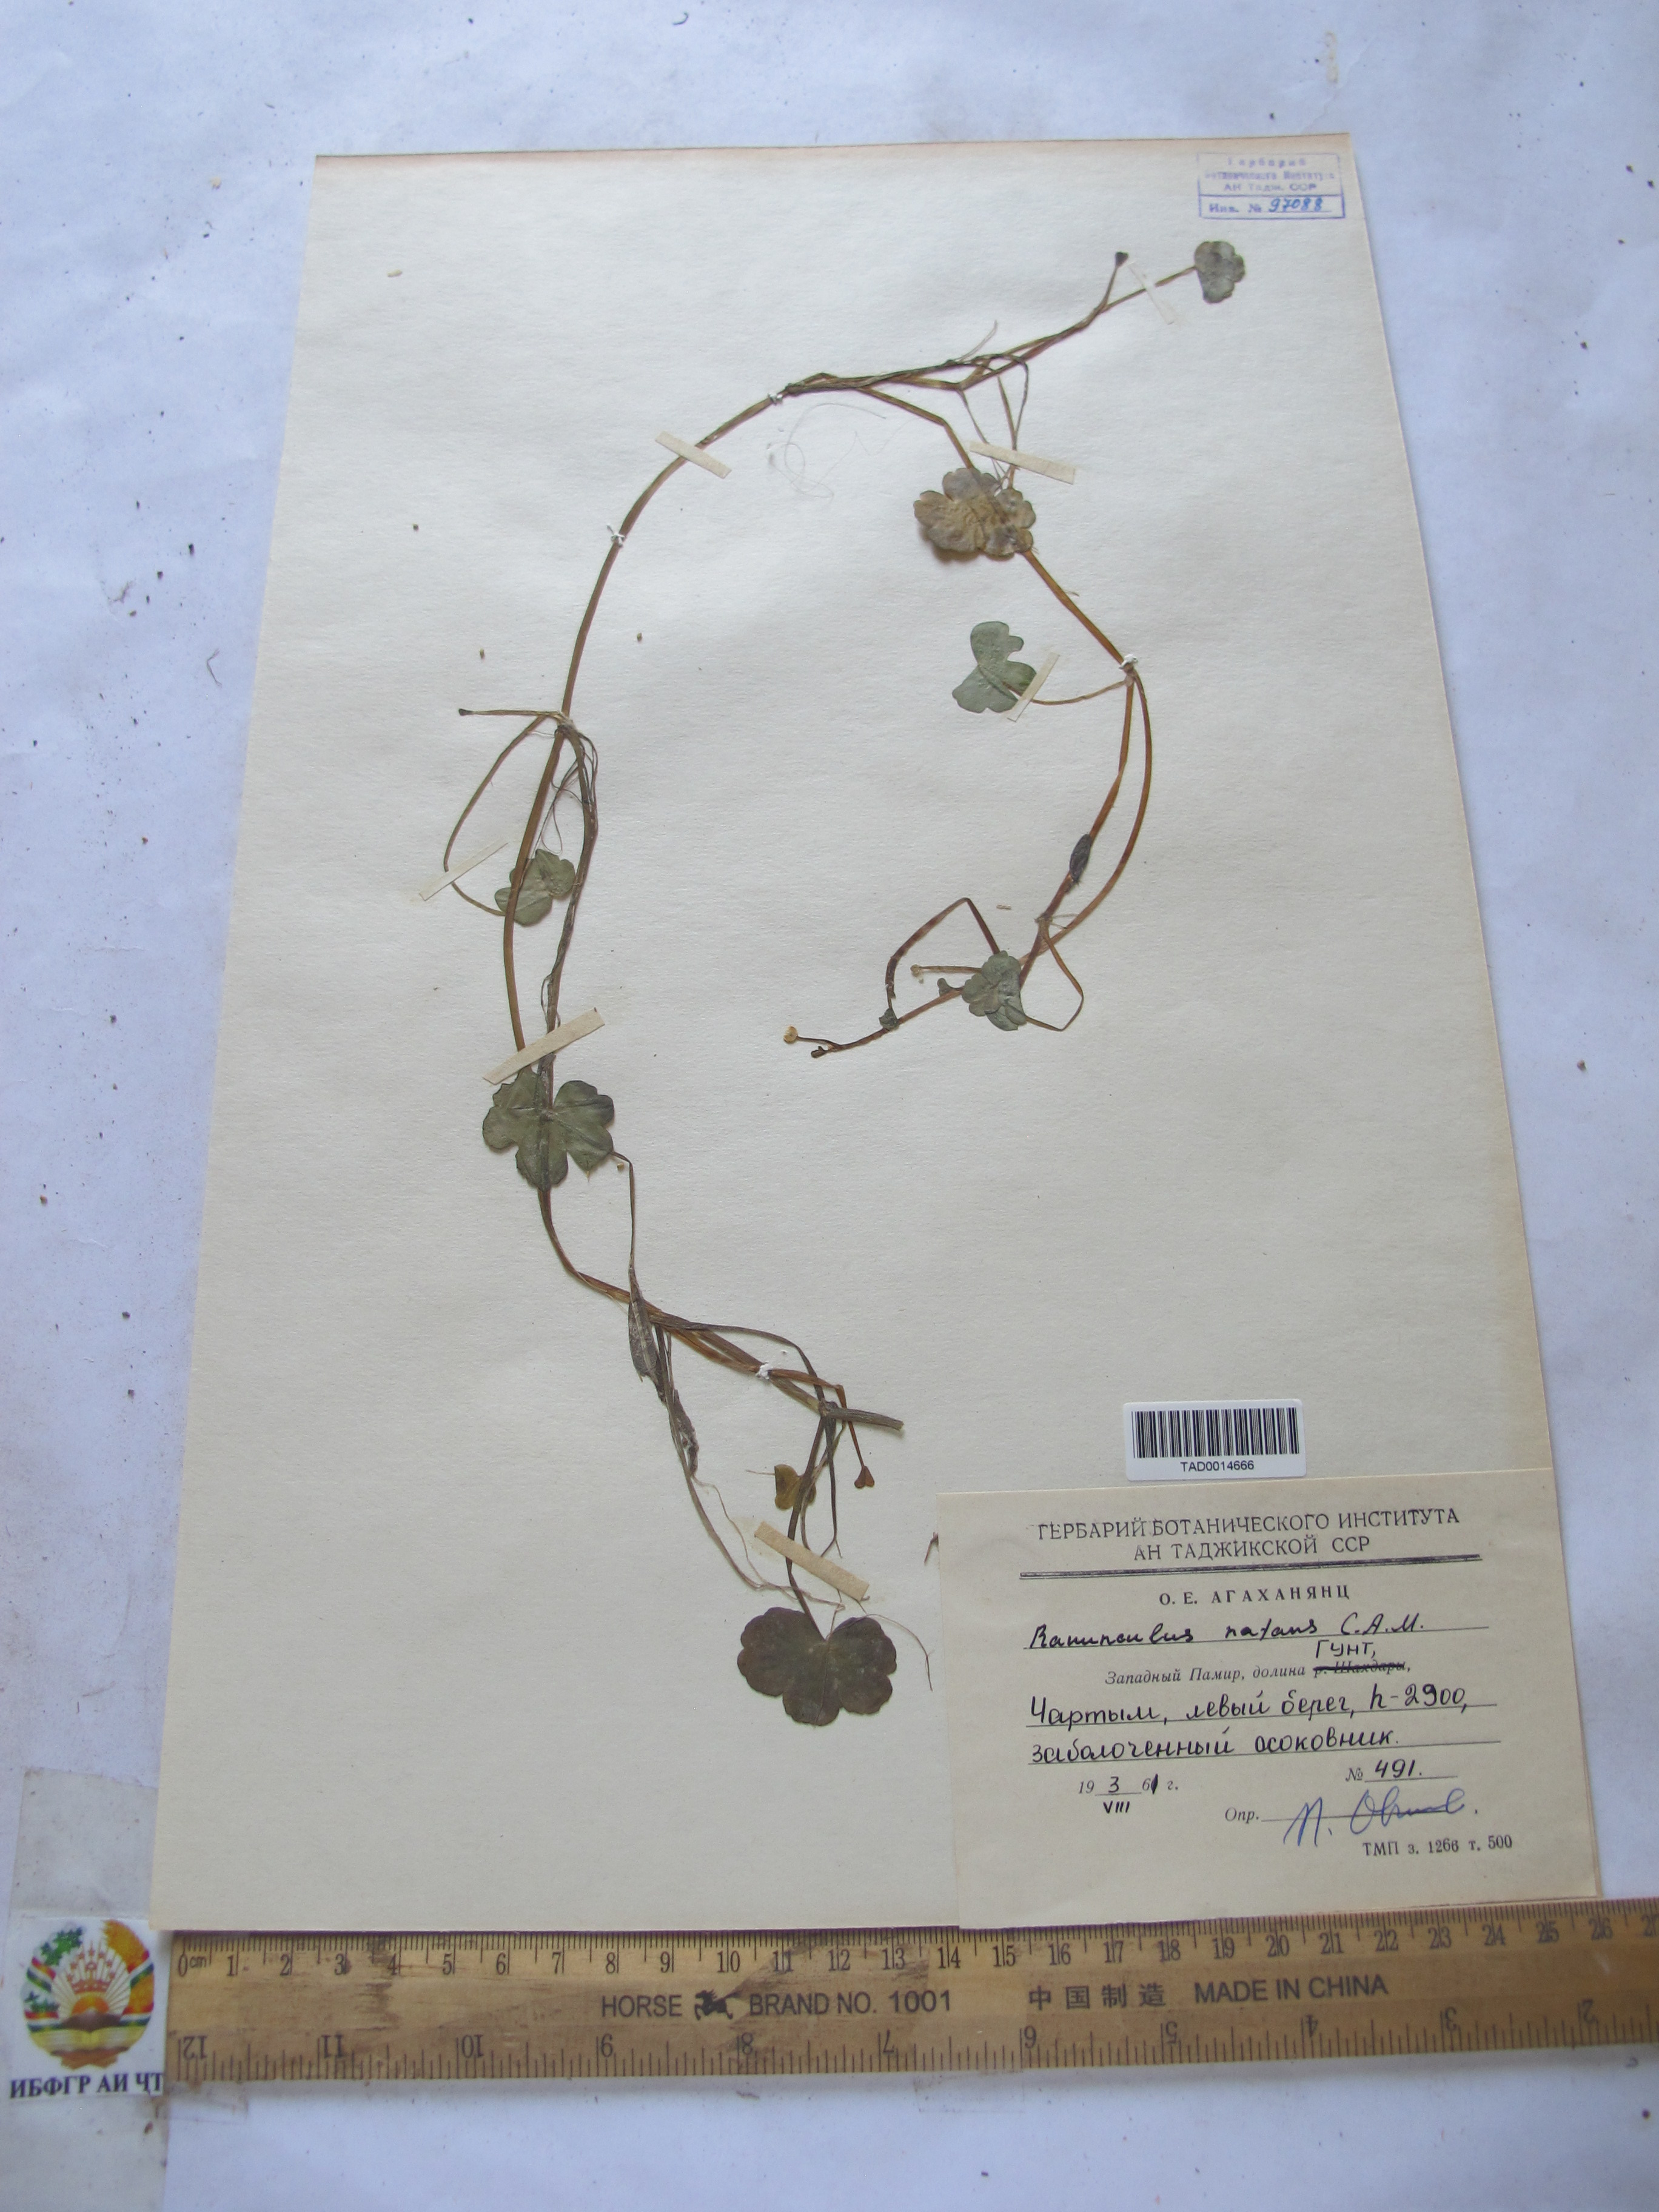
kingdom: Plantae
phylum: Tracheophyta
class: Magnoliopsida
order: Ranunculales
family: Ranunculaceae
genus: Ranunculus
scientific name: Ranunculus natans
